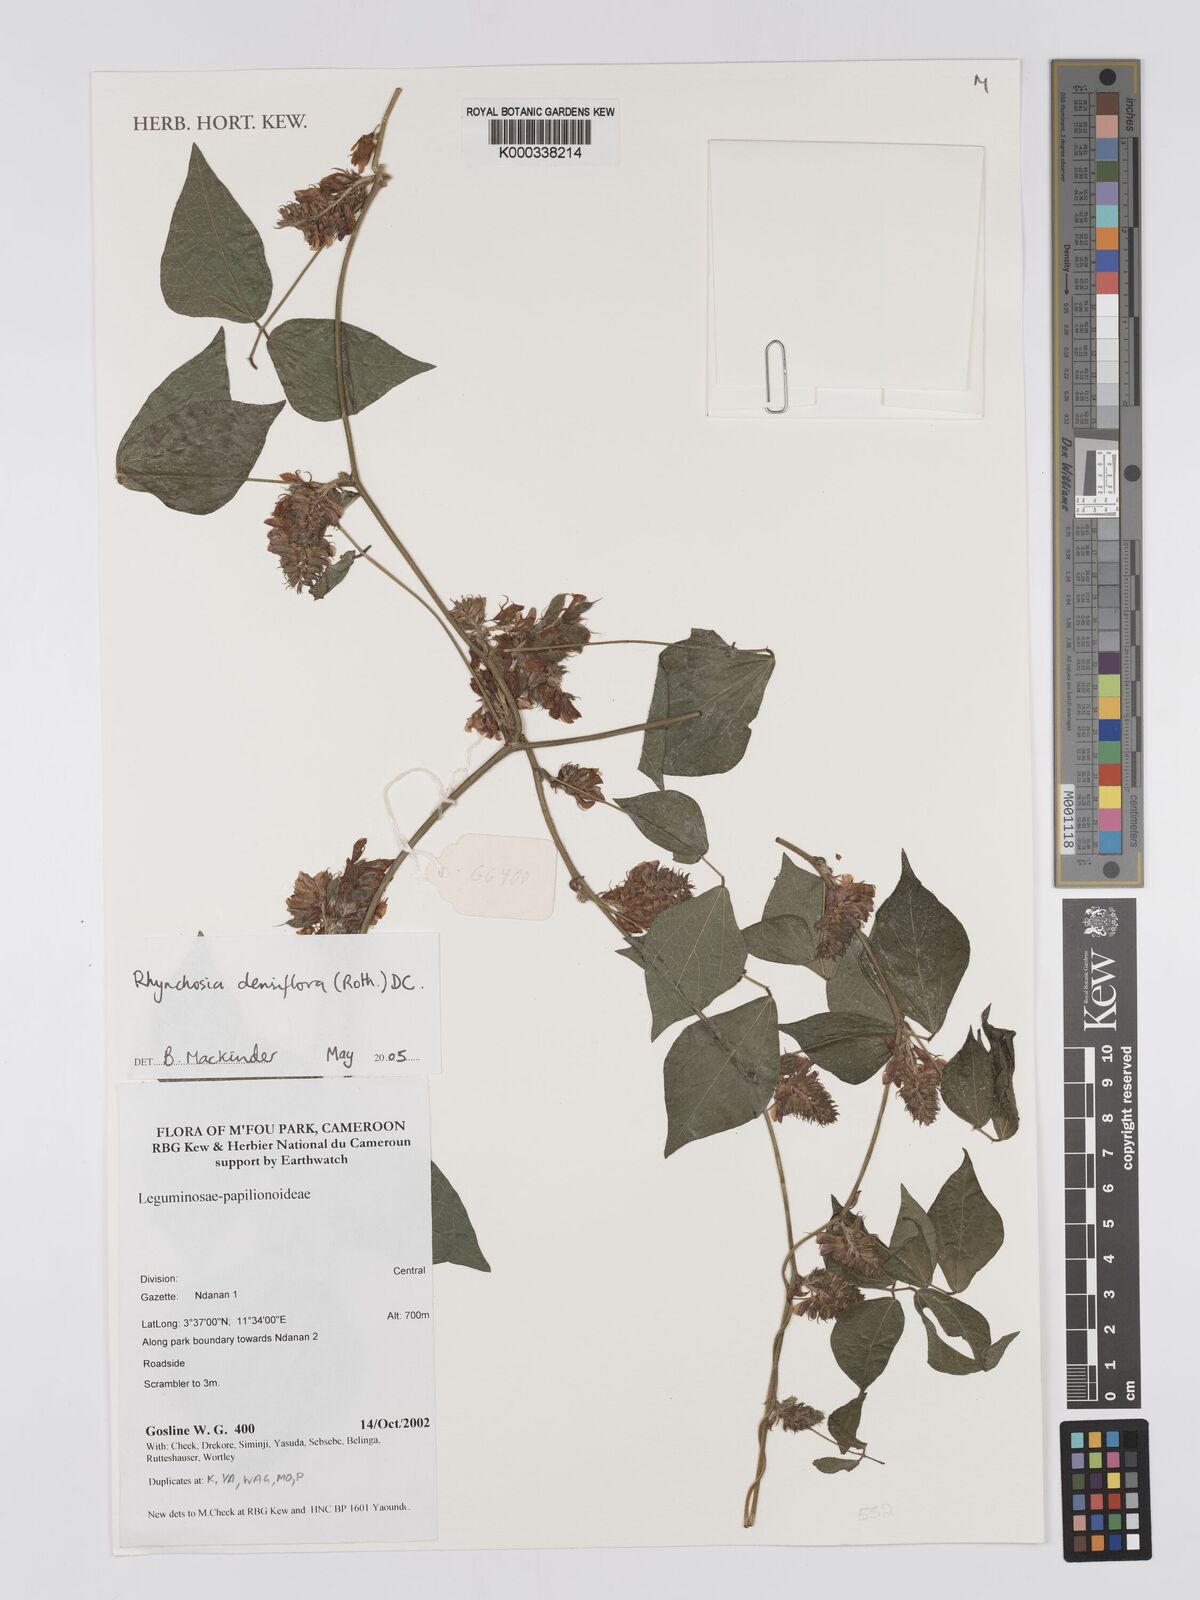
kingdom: Plantae
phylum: Tracheophyta
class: Magnoliopsida
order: Fabales
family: Fabaceae
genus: Rhynchosia
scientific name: Rhynchosia densiflora
